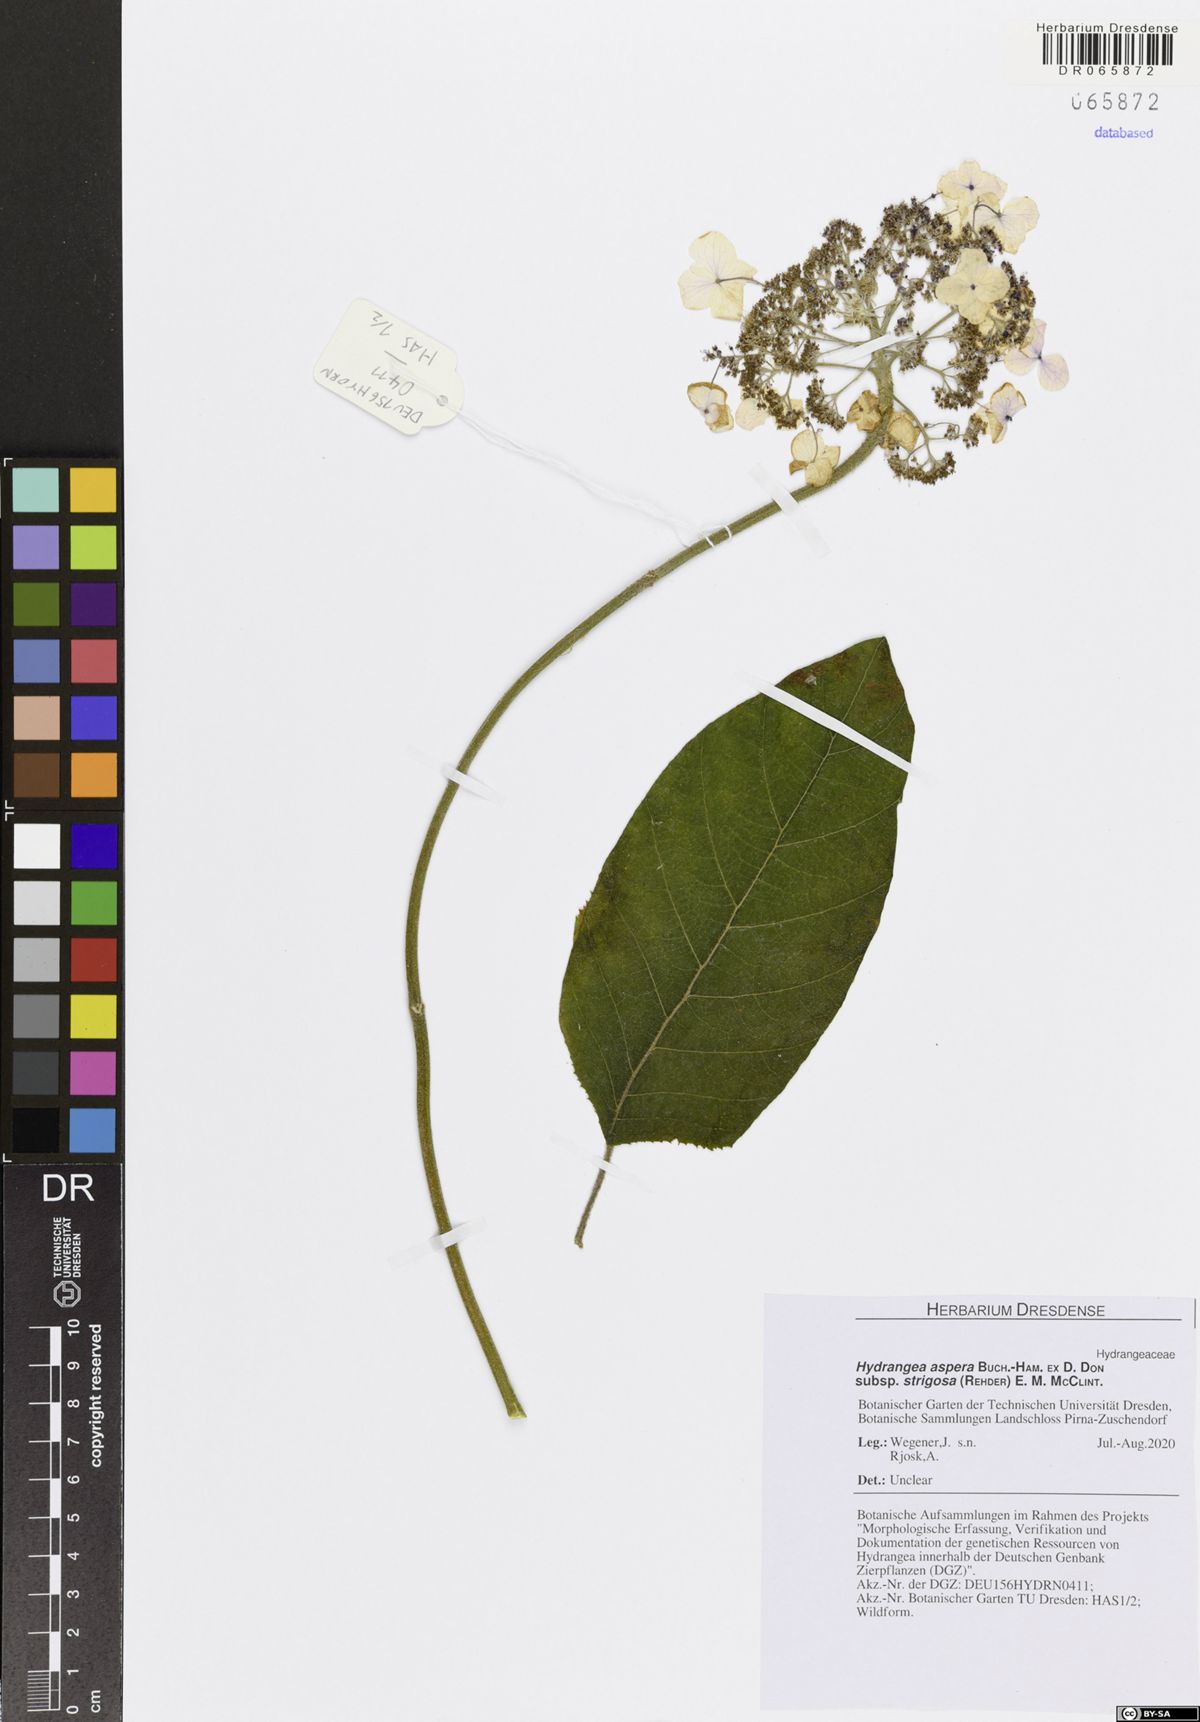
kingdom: Plantae
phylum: Tracheophyta
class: Magnoliopsida
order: Cornales
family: Hydrangeaceae
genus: Hydrangea
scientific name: Hydrangea strigosa
